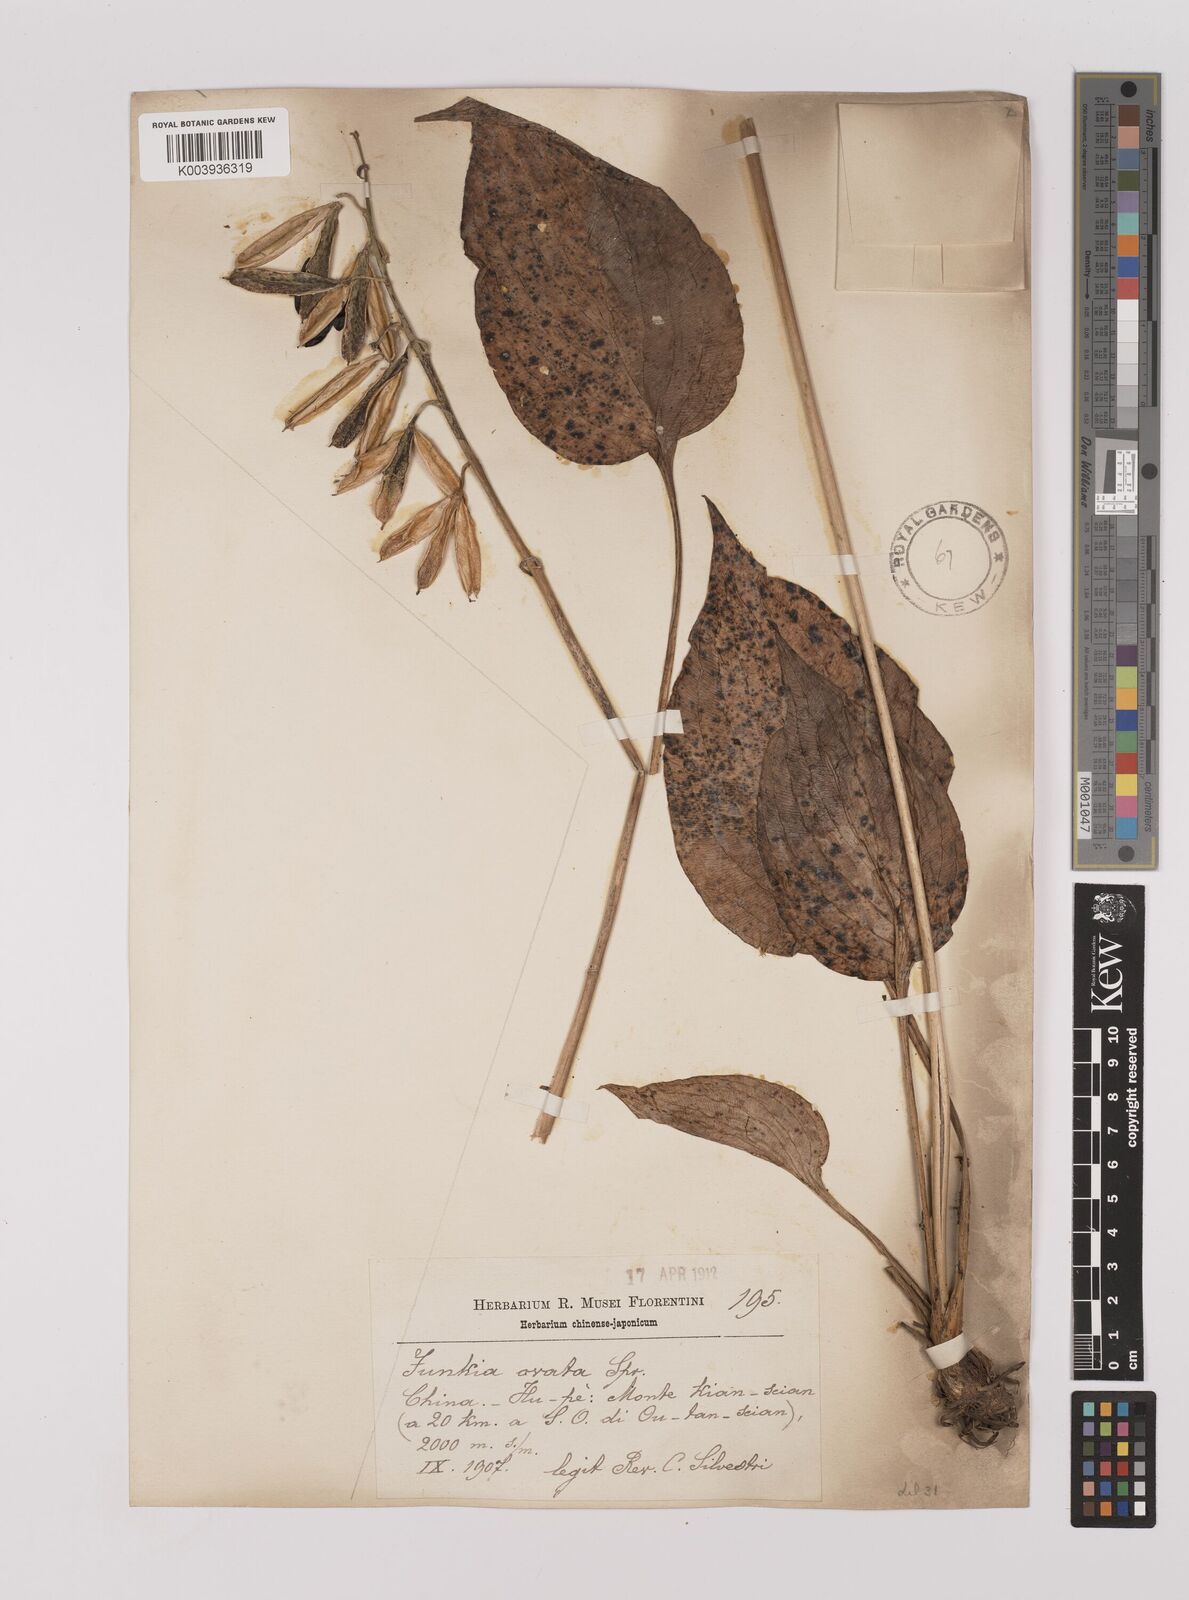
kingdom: Plantae
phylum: Tracheophyta
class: Liliopsida
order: Asparagales
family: Asparagaceae
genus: Hosta
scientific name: Hosta ventricosa
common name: Blue plantain-lily
